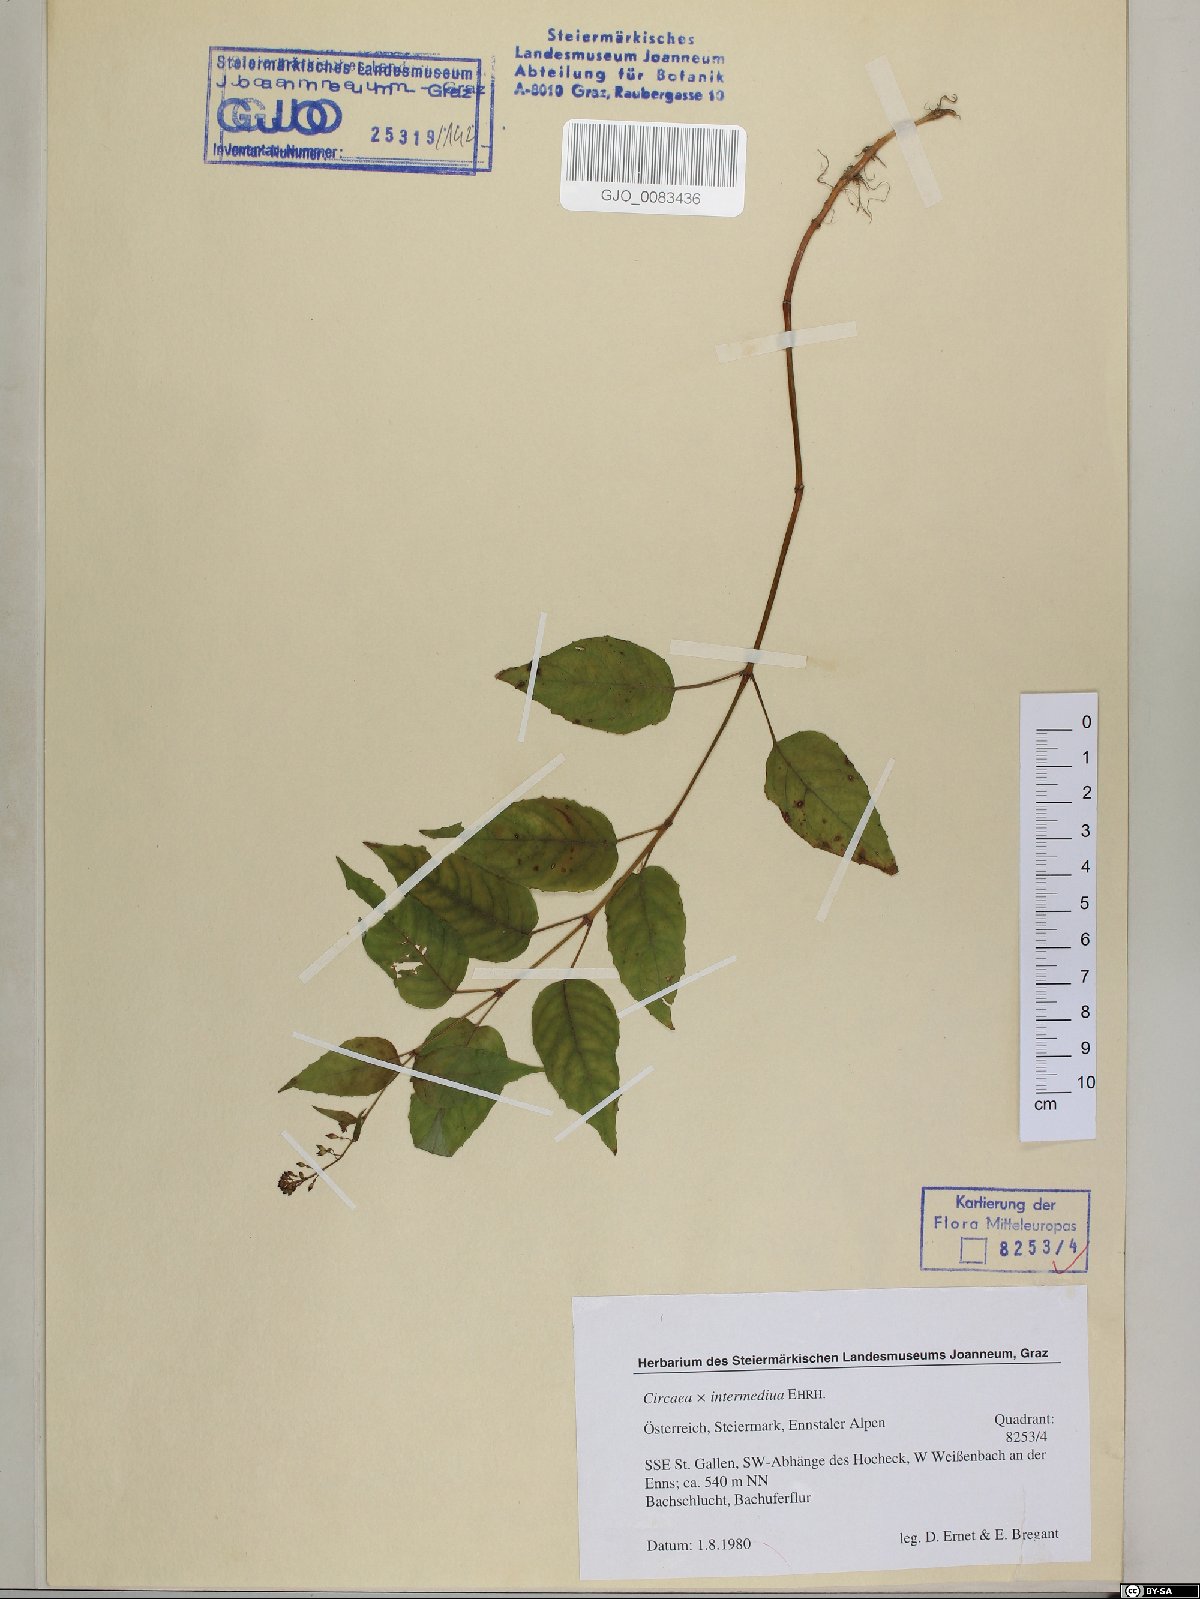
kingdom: Plantae
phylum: Tracheophyta
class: Magnoliopsida
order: Myrtales
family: Onagraceae
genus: Circaea
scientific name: Circaea intermedia
